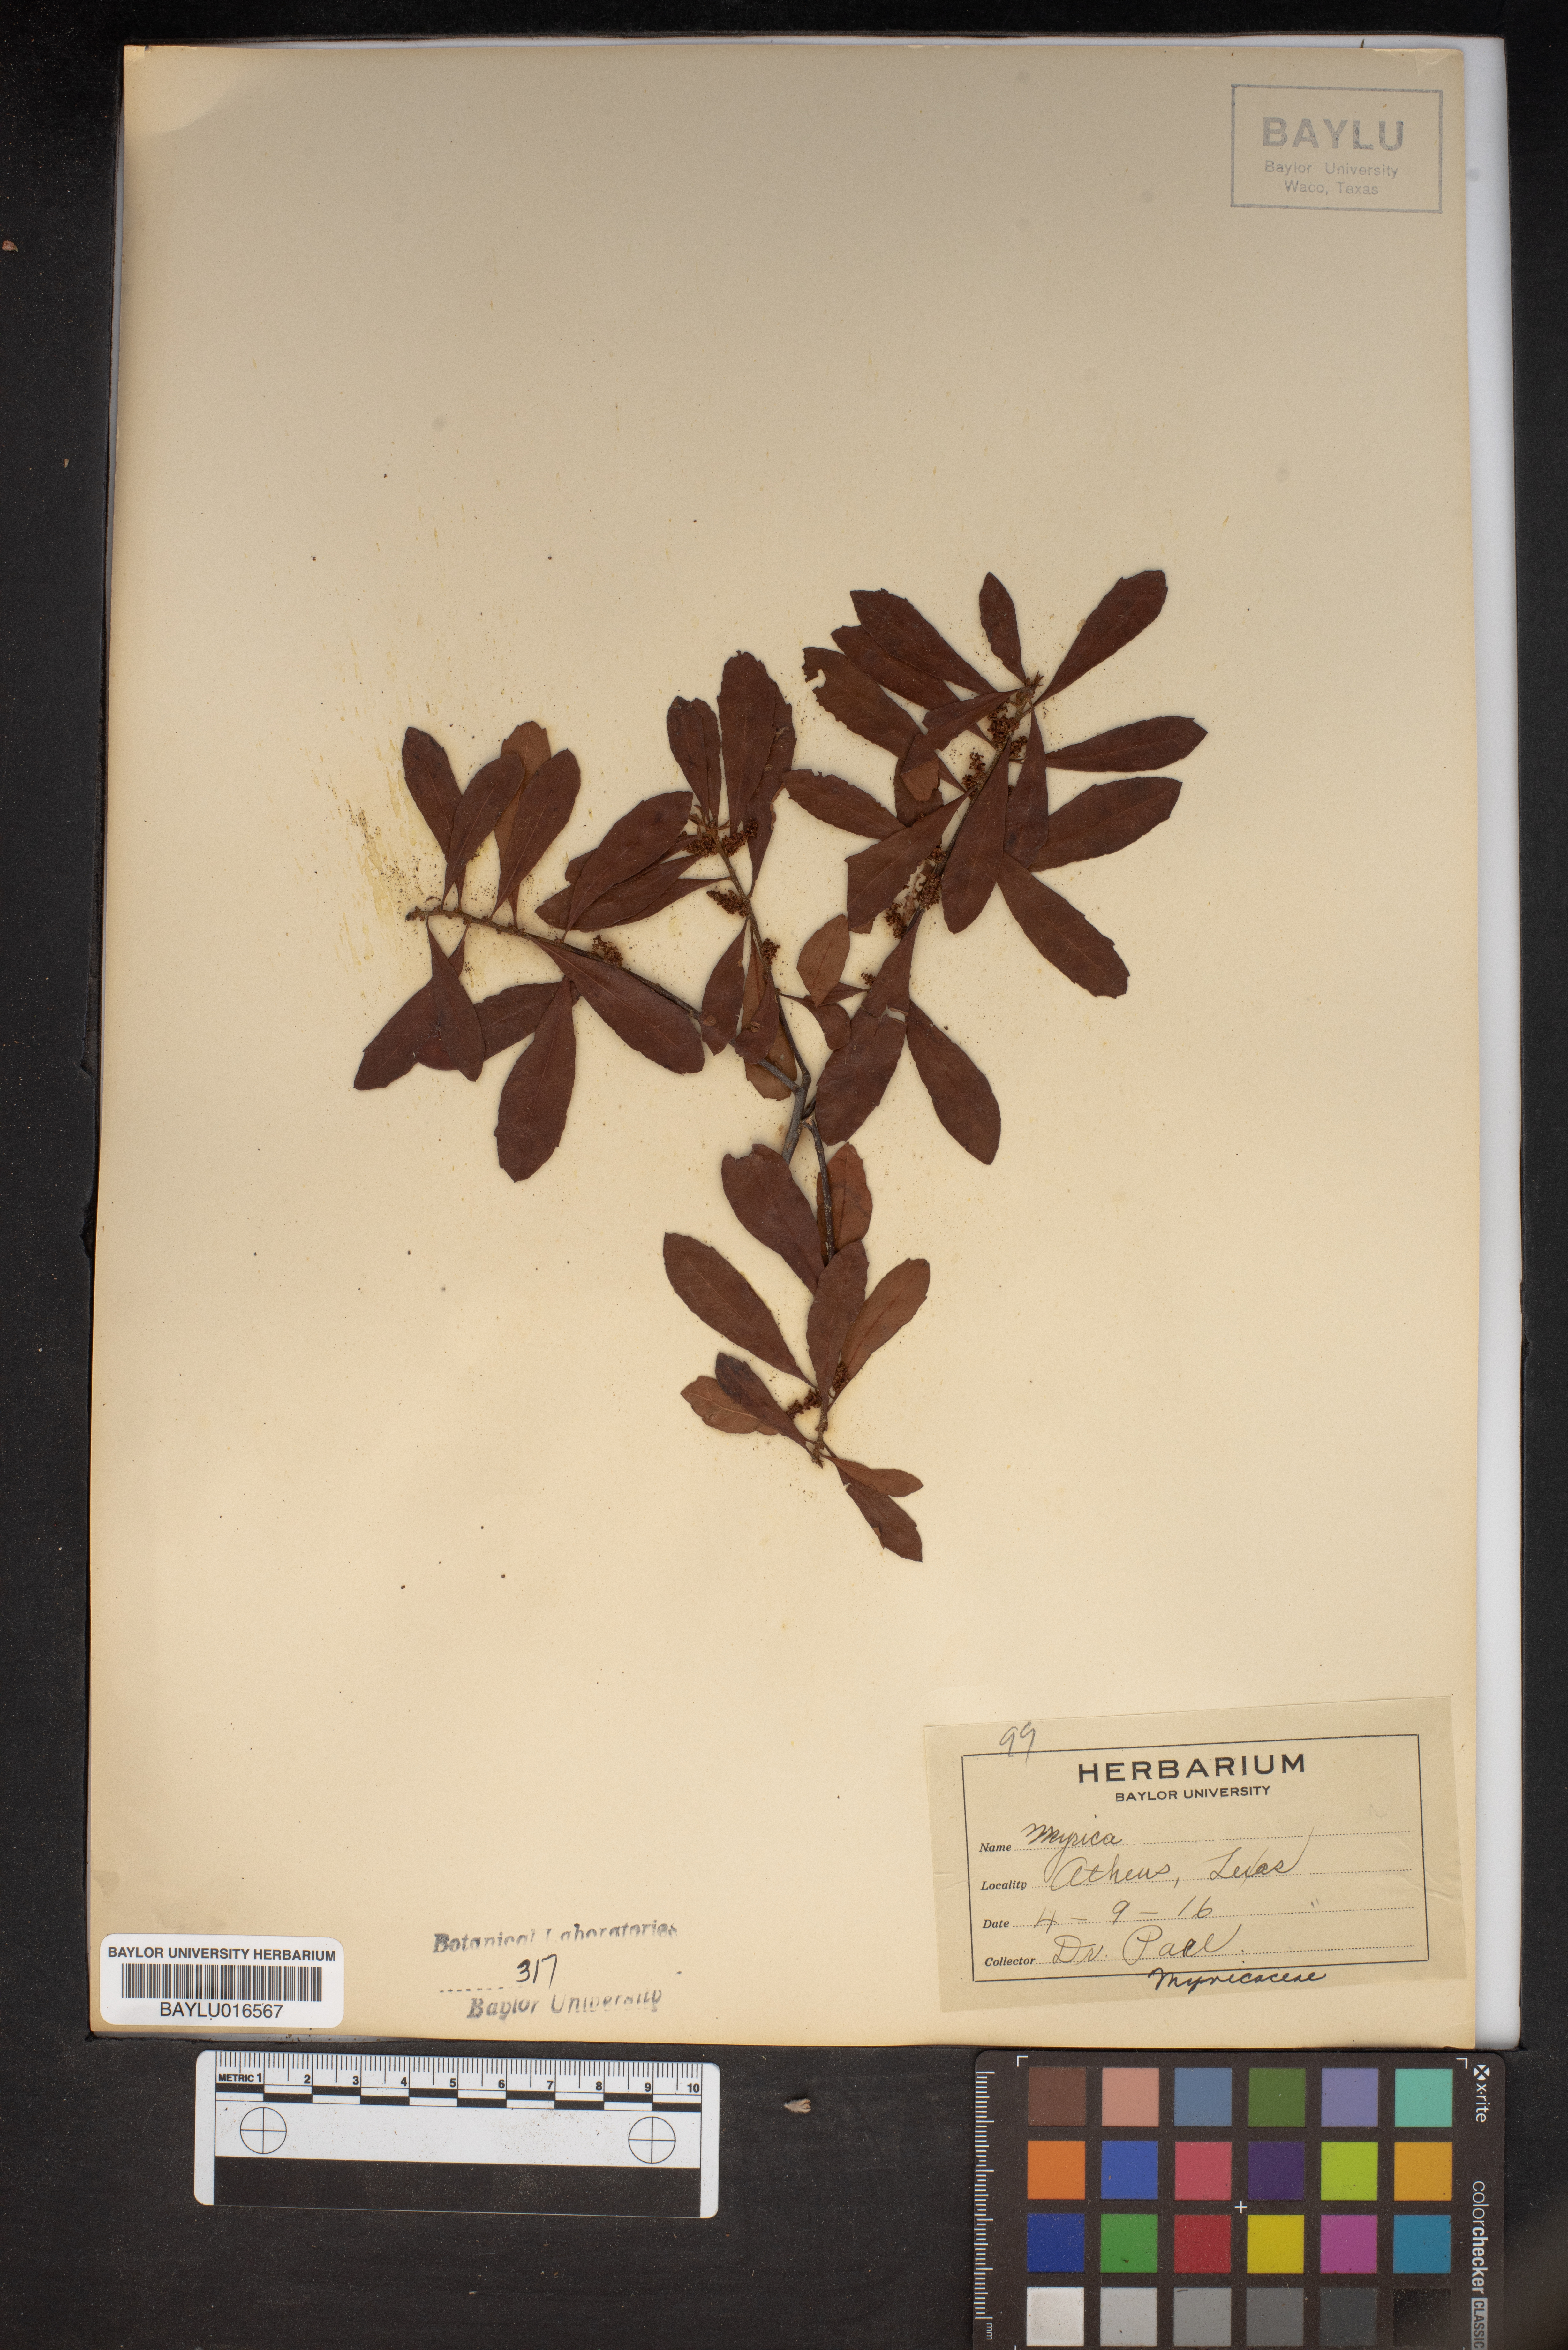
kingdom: Plantae
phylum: Tracheophyta
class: Magnoliopsida
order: Fagales
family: Myricaceae
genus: Myrica
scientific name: Myrica
